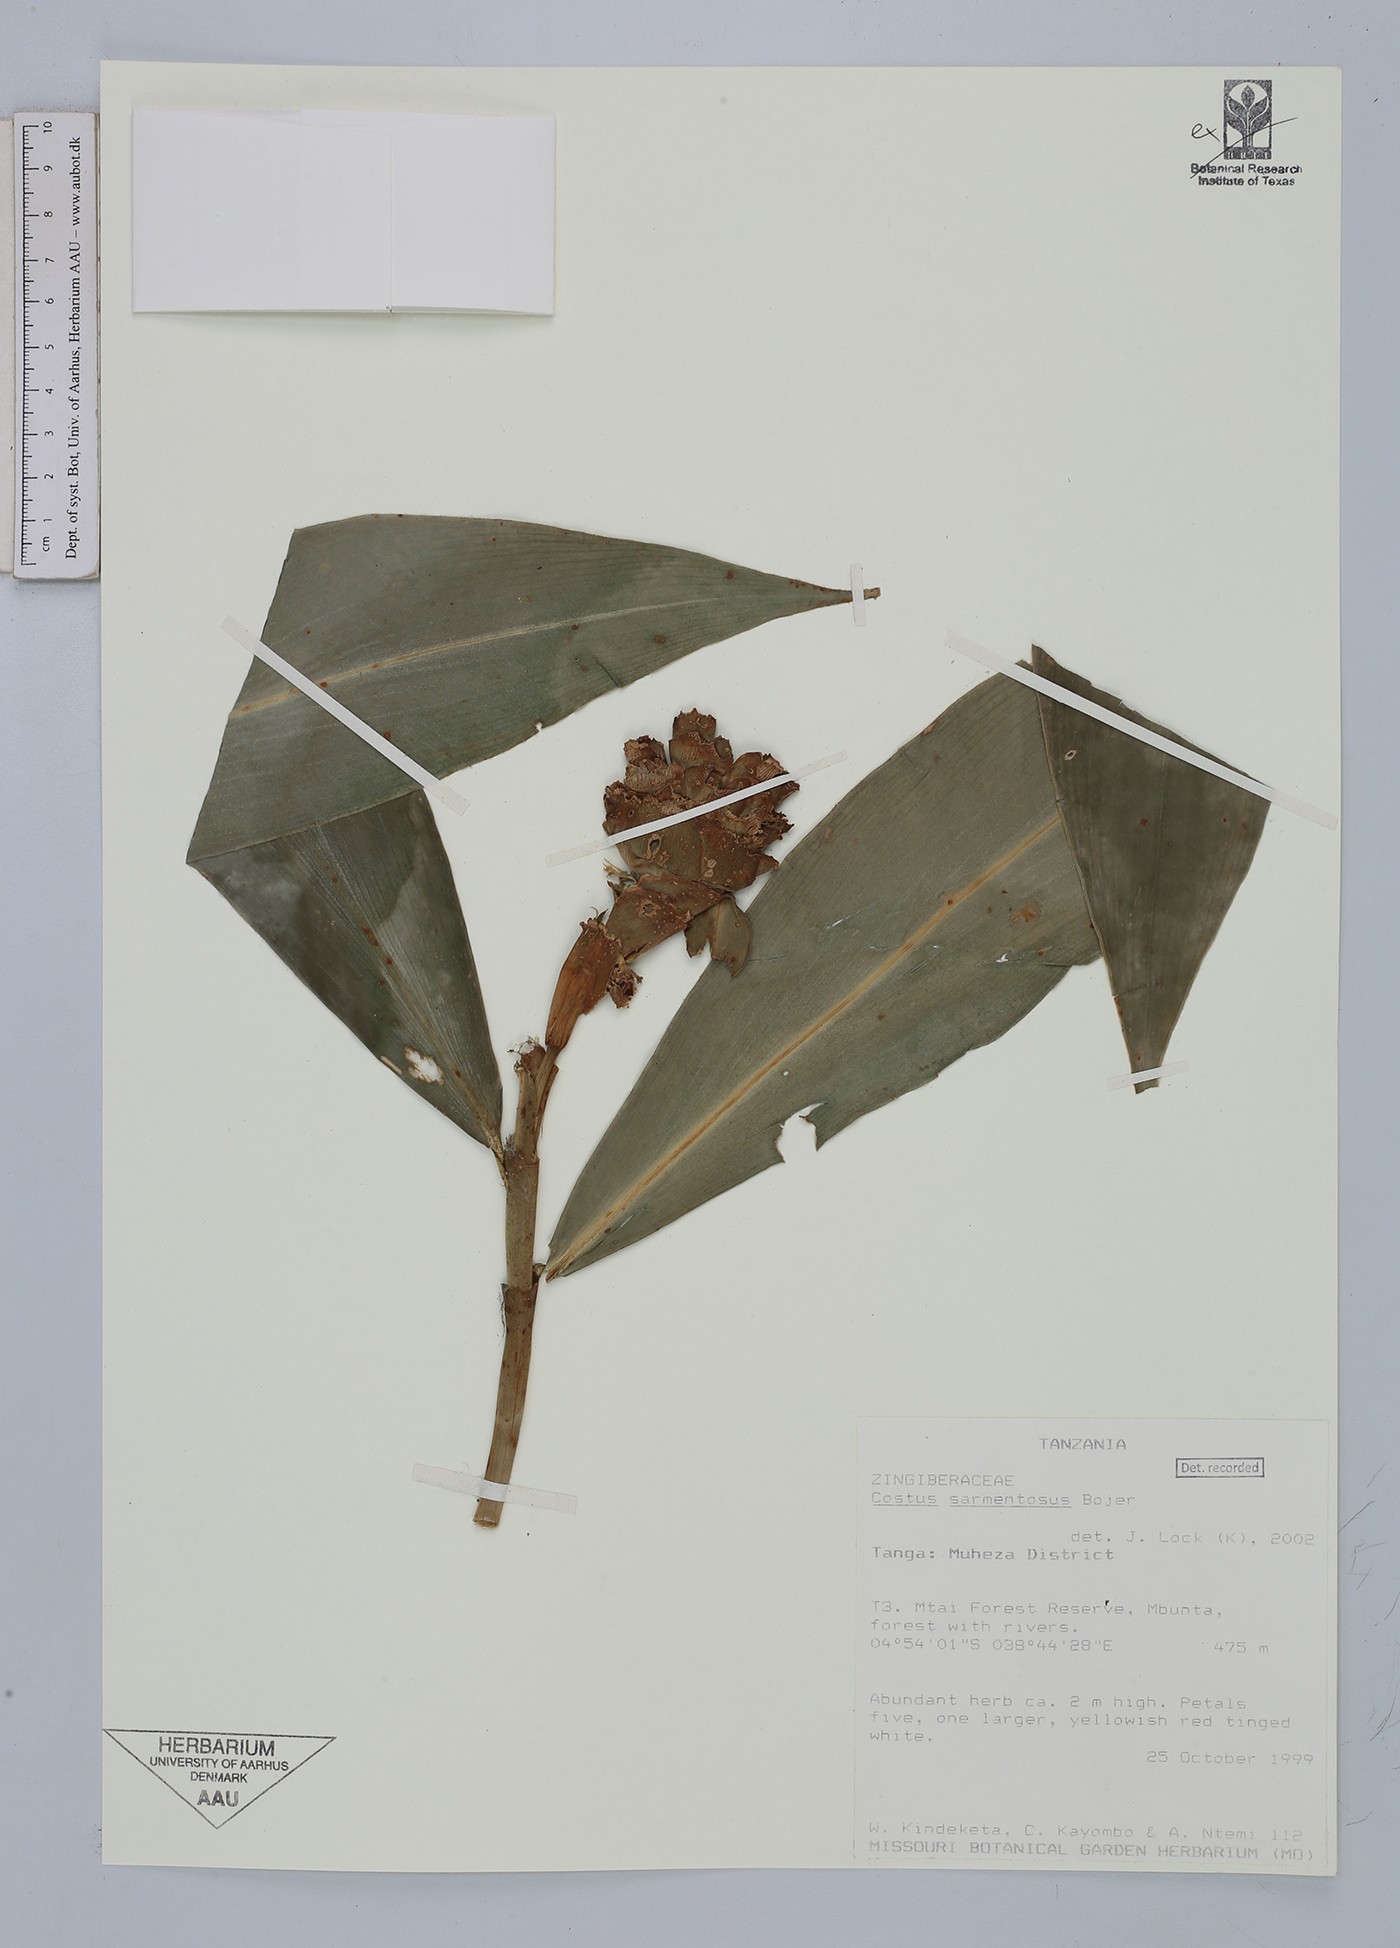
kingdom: Plantae
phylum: Tracheophyta
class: Liliopsida
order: Zingiberales
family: Costaceae
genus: Costus
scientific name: Costus afer
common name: Spiral-ginger
